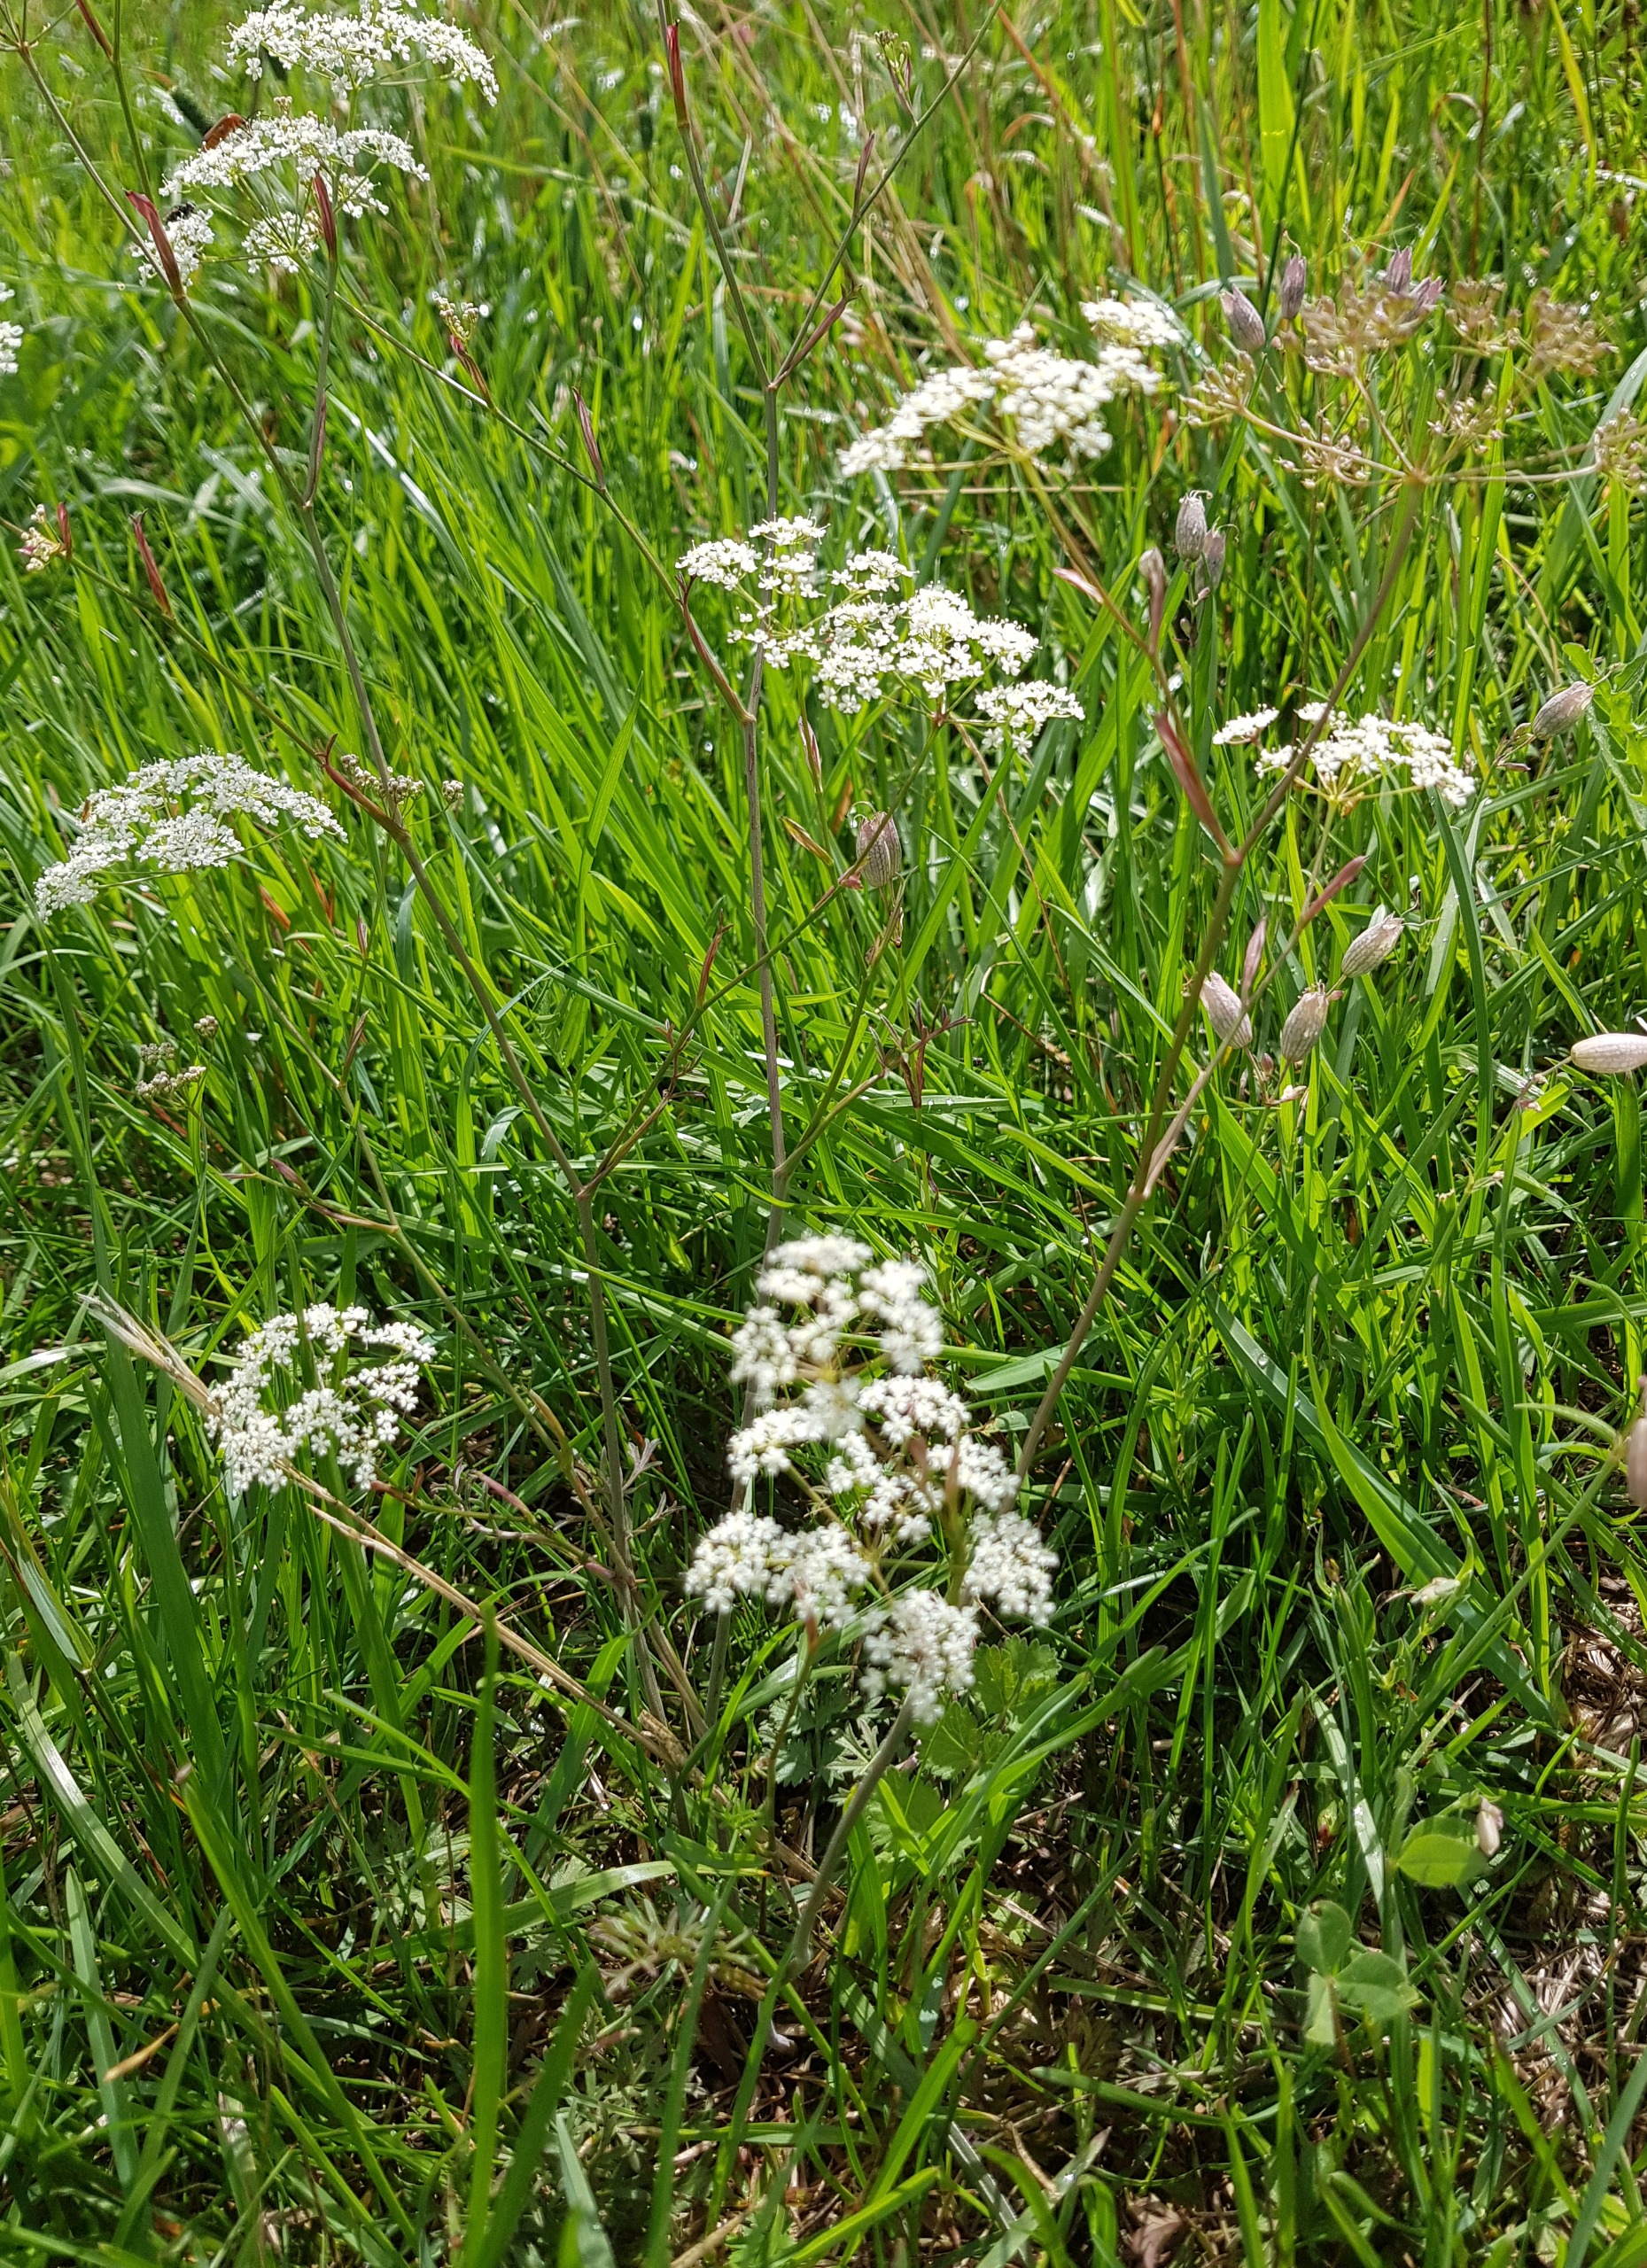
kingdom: Plantae
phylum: Tracheophyta
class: Magnoliopsida
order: Apiales
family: Apiaceae
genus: Pimpinella
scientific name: Pimpinella saxifraga
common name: Almindelig pimpinelle
